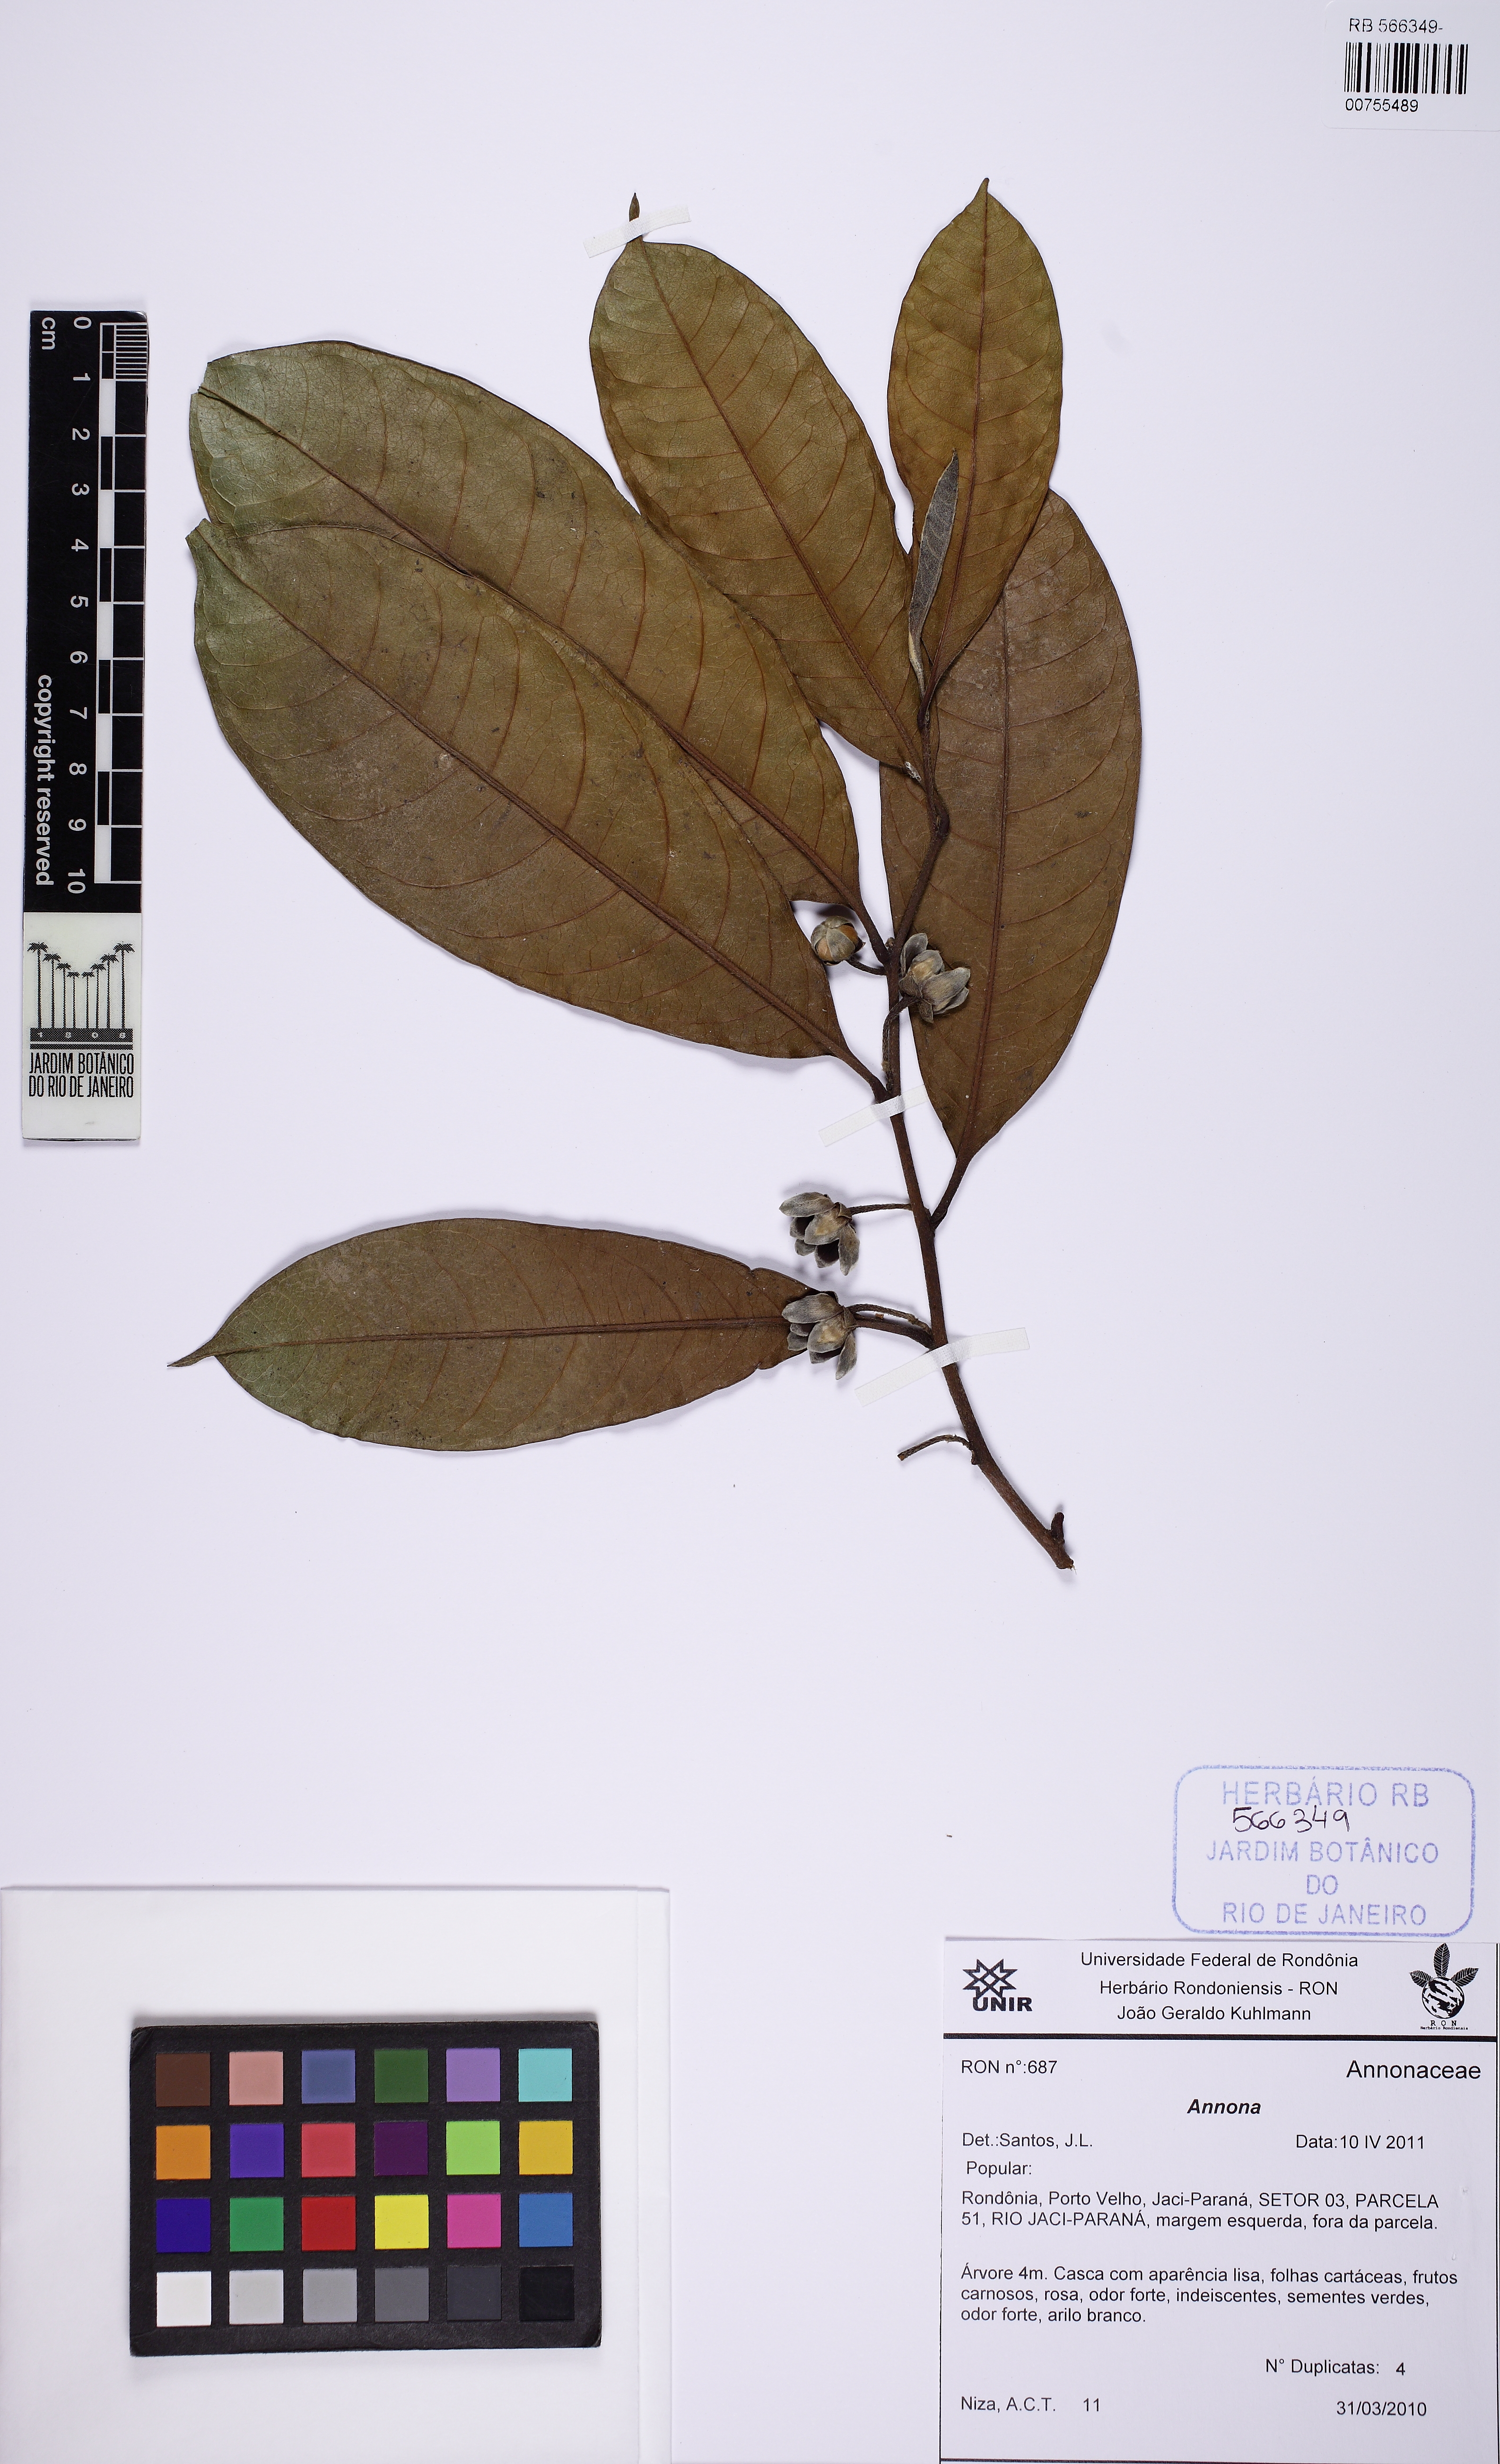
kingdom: Plantae
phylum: Tracheophyta
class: Magnoliopsida
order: Magnoliales
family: Annonaceae
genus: Guatteria
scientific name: Guatteria
